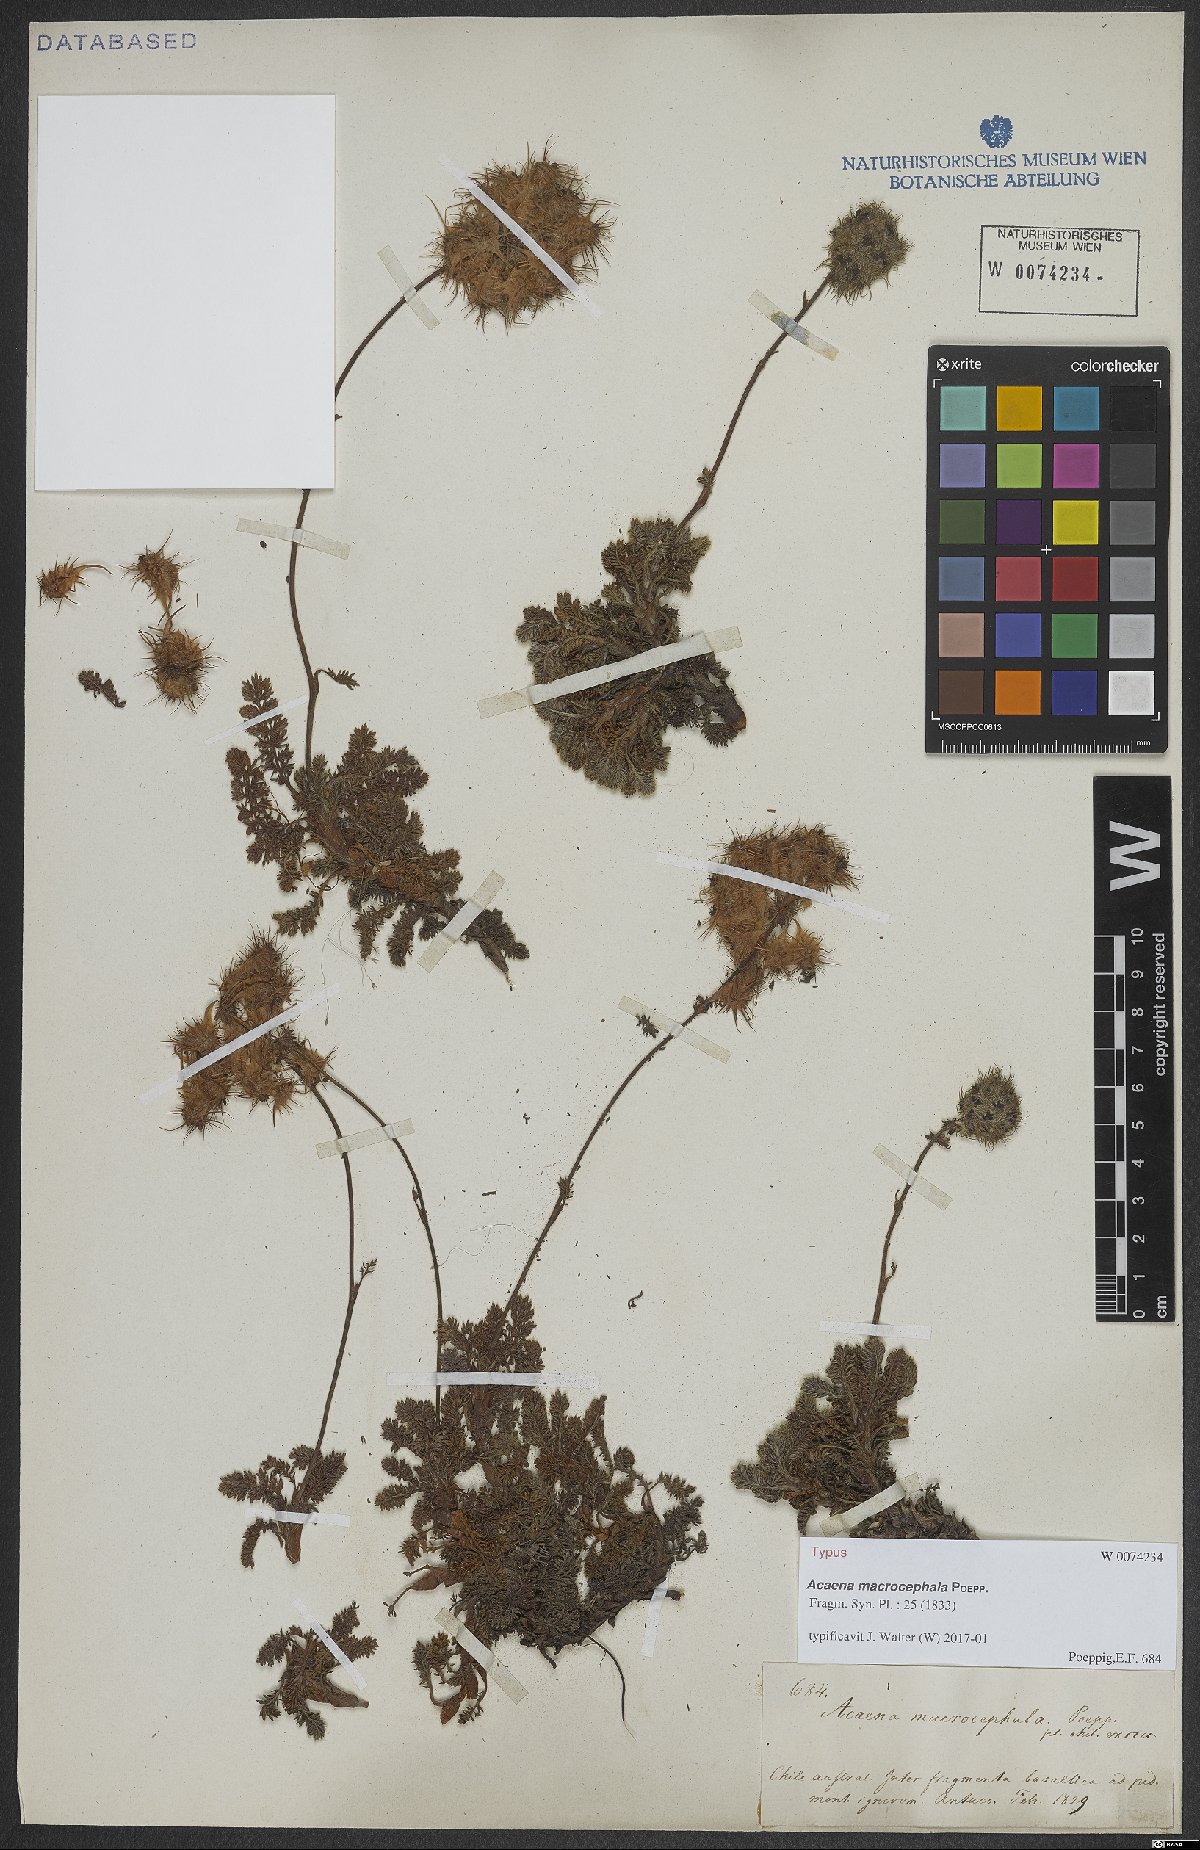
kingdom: Plantae
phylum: Tracheophyta
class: Magnoliopsida
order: Rosales
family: Rosaceae
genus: Acaena
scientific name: Acaena macrocephala
